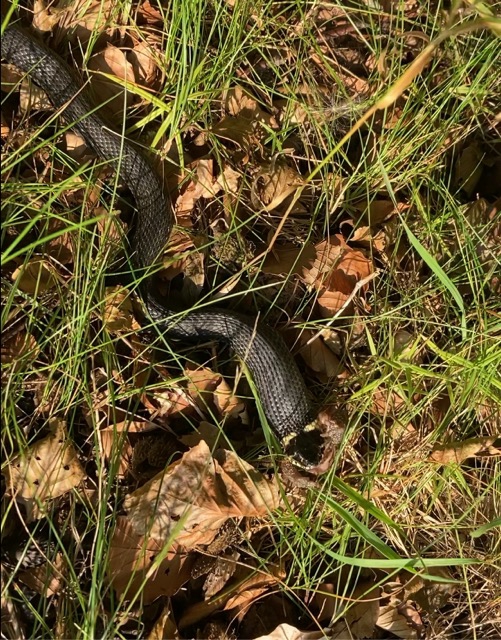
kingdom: Animalia
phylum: Chordata
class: Squamata
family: Colubridae
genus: Natrix
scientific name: Natrix natrix
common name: Snog
